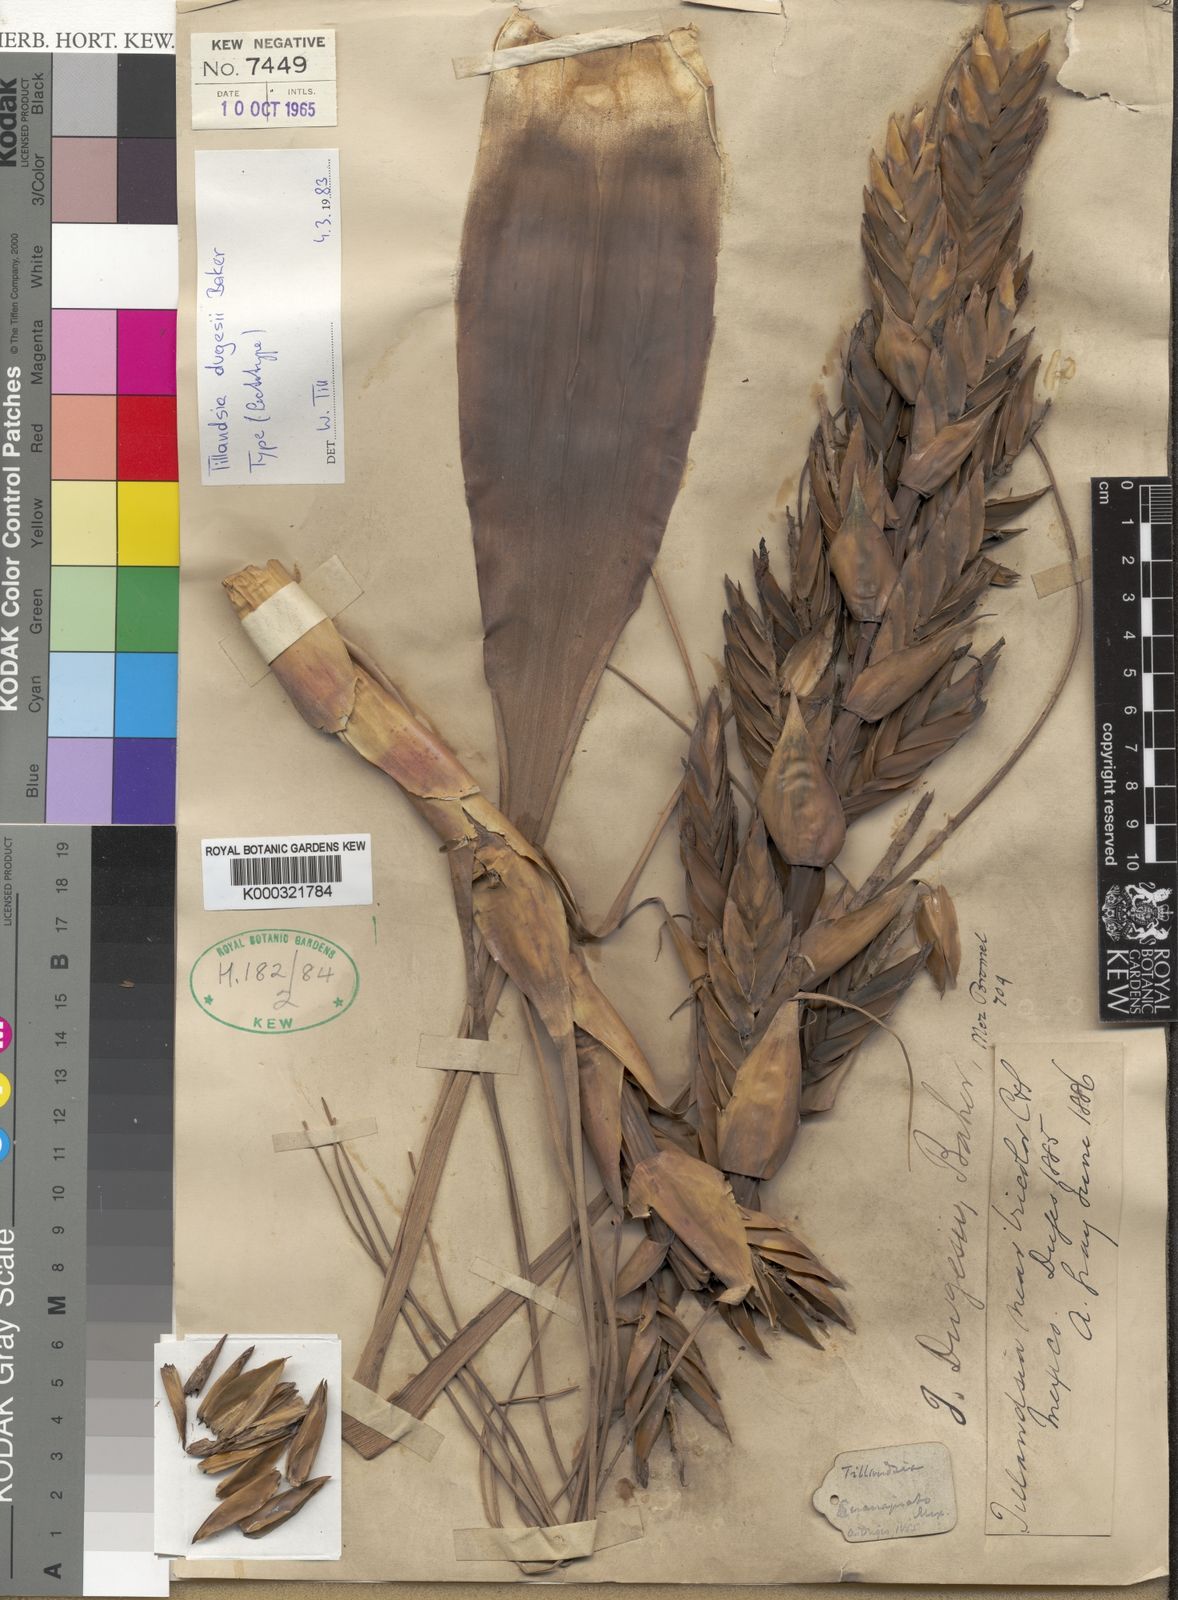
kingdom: Plantae
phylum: Tracheophyta
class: Liliopsida
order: Poales
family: Bromeliaceae
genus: Tillandsia
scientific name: Tillandsia dugesii
